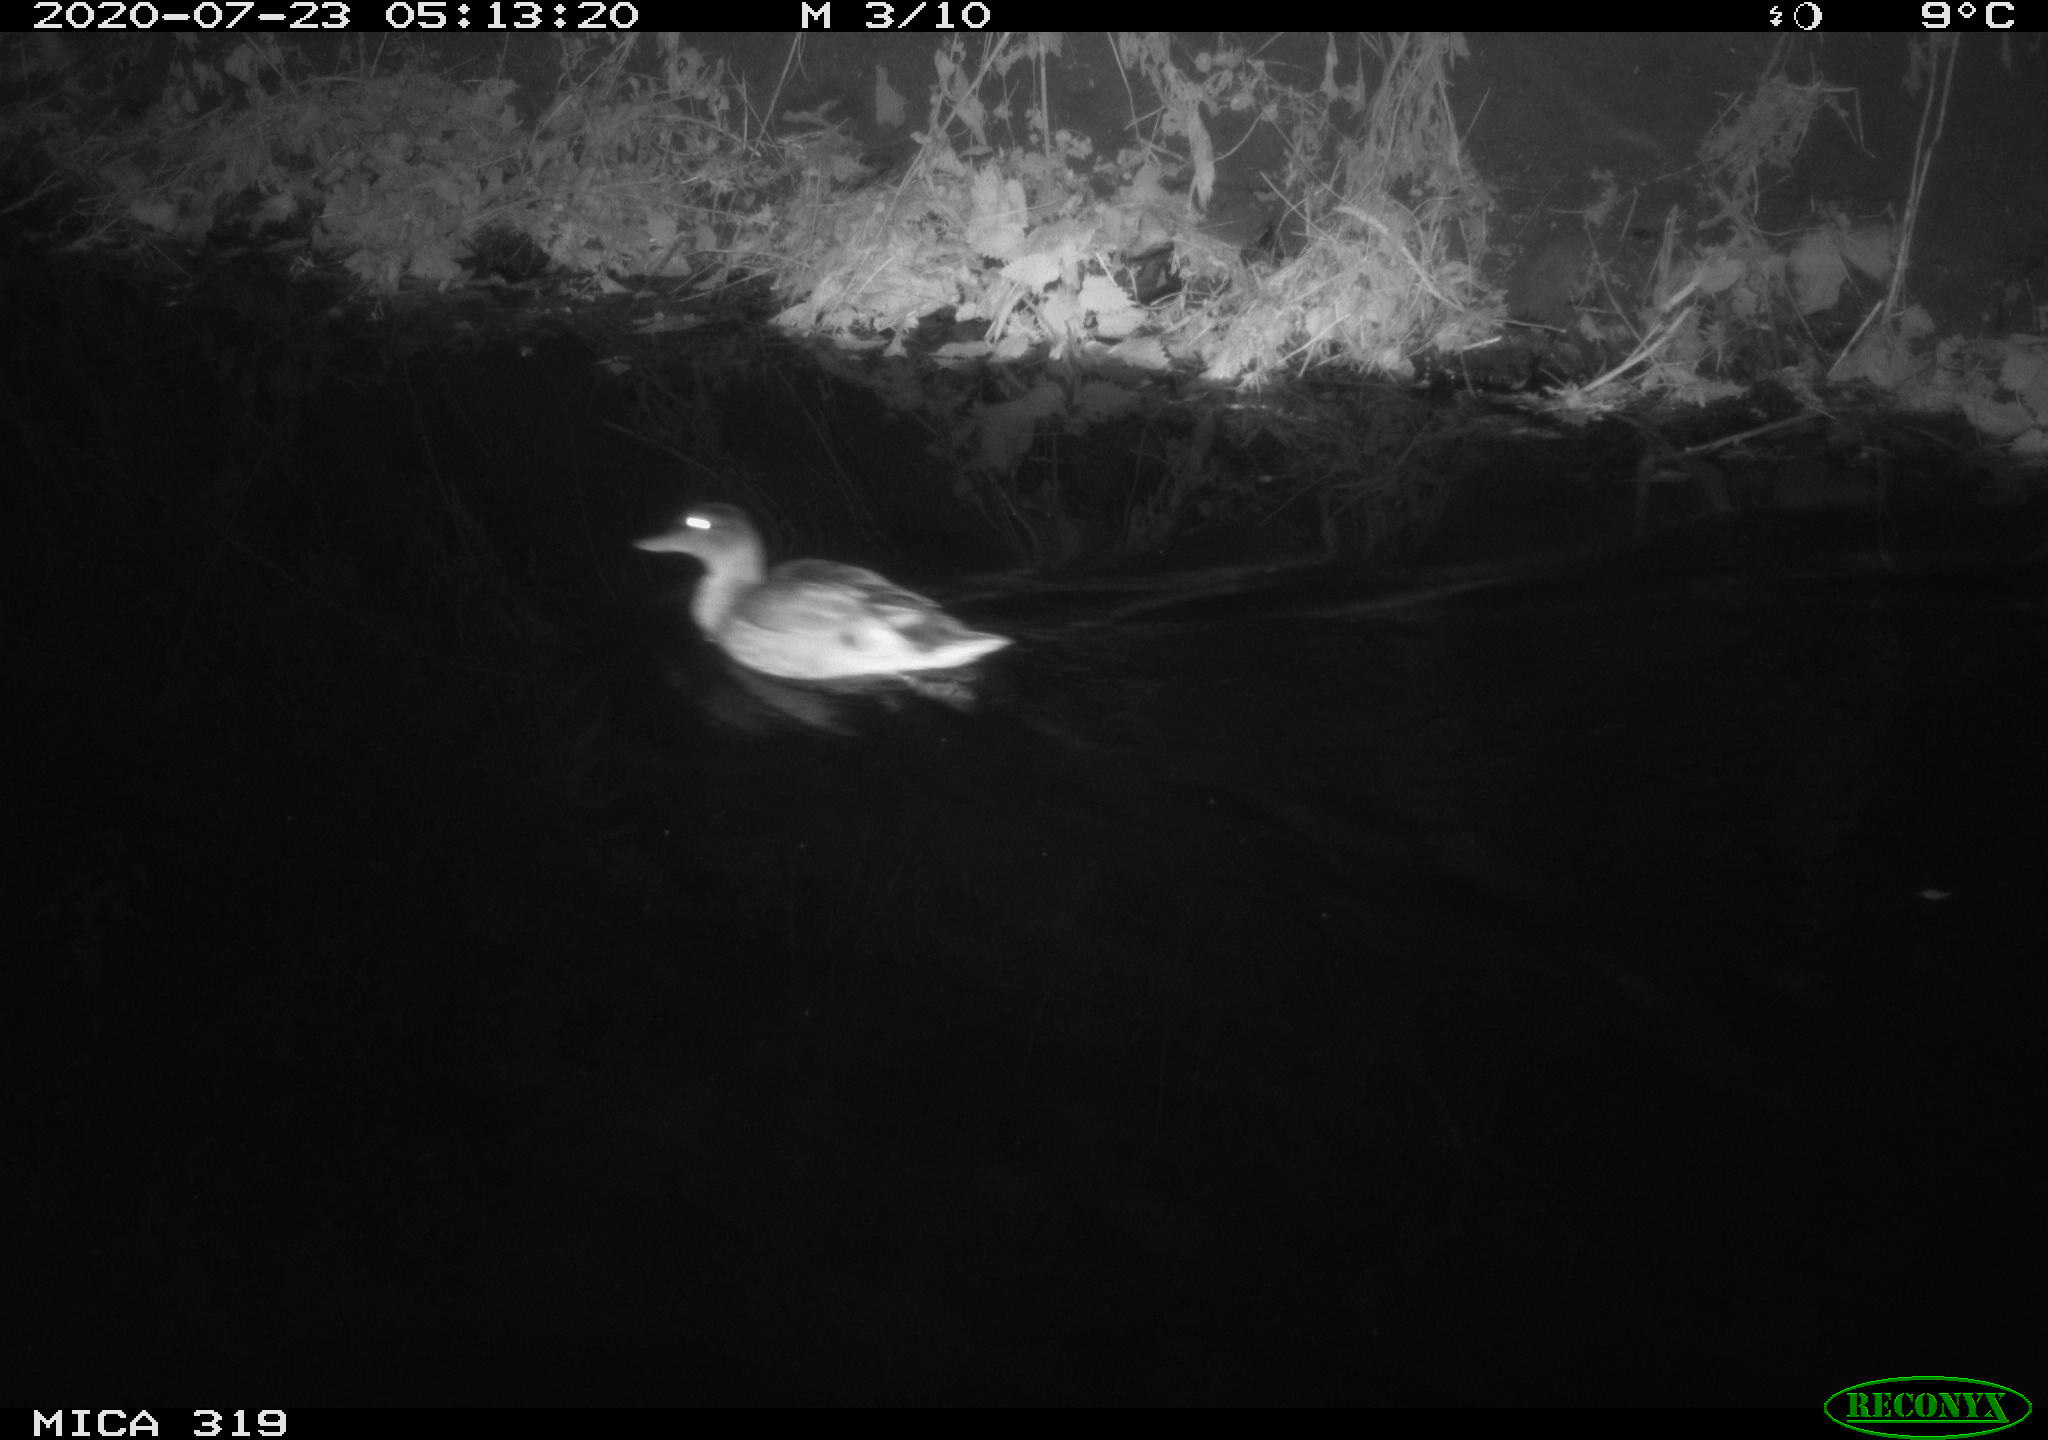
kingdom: Animalia
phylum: Chordata
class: Aves
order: Anseriformes
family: Anatidae
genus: Anas
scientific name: Anas platyrhynchos
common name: Mallard
